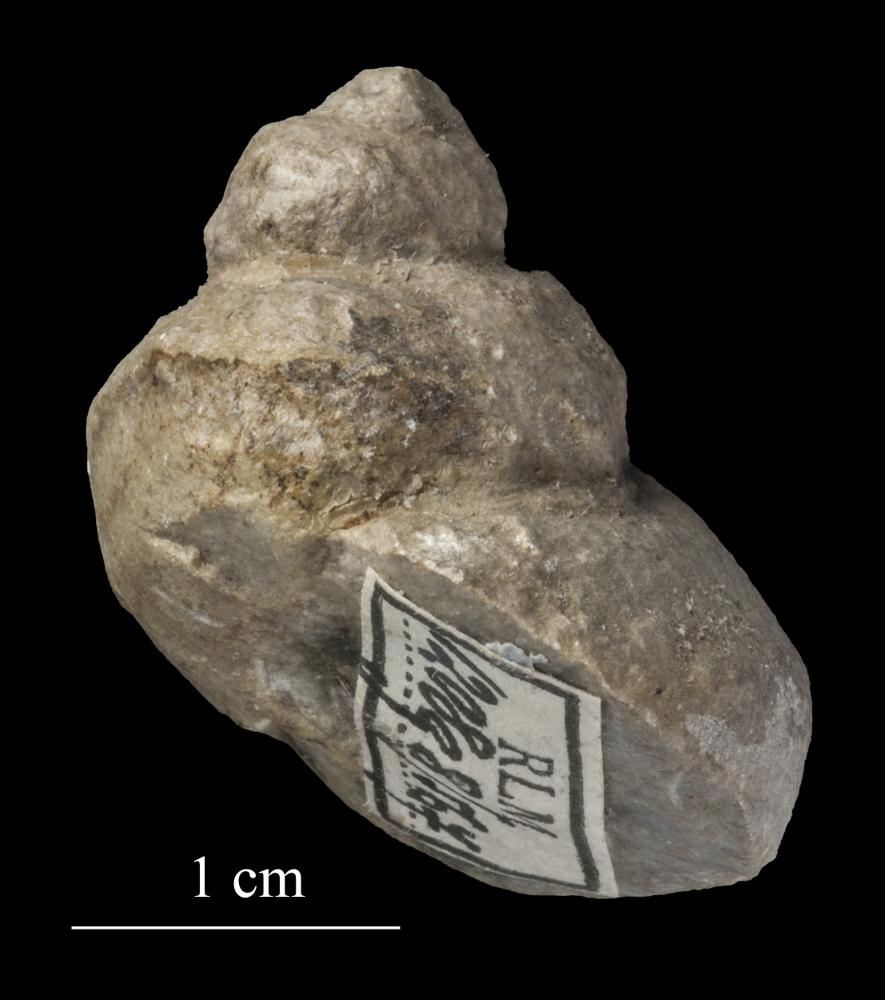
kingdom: Animalia
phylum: Mollusca
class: Gastropoda
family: Lophospiridae
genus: Lophospira
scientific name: Lophospira
